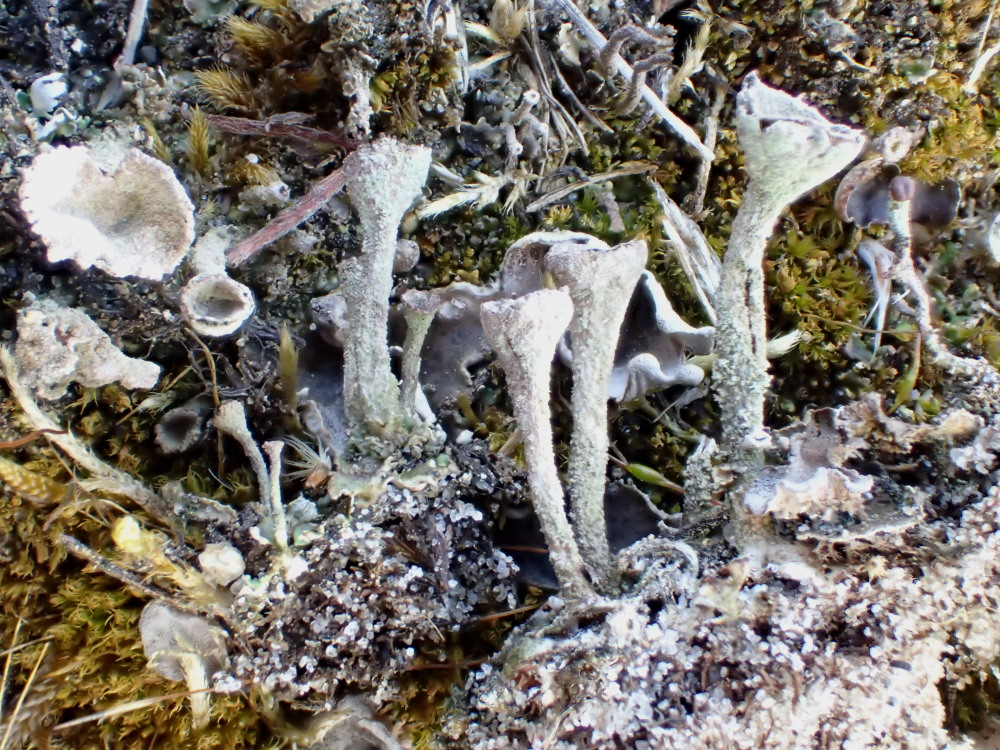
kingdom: Fungi
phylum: Ascomycota
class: Lecanoromycetes
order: Lecanorales
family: Cladoniaceae
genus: Cladonia
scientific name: Cladonia merochlorophaea
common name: mørk bægerlav
